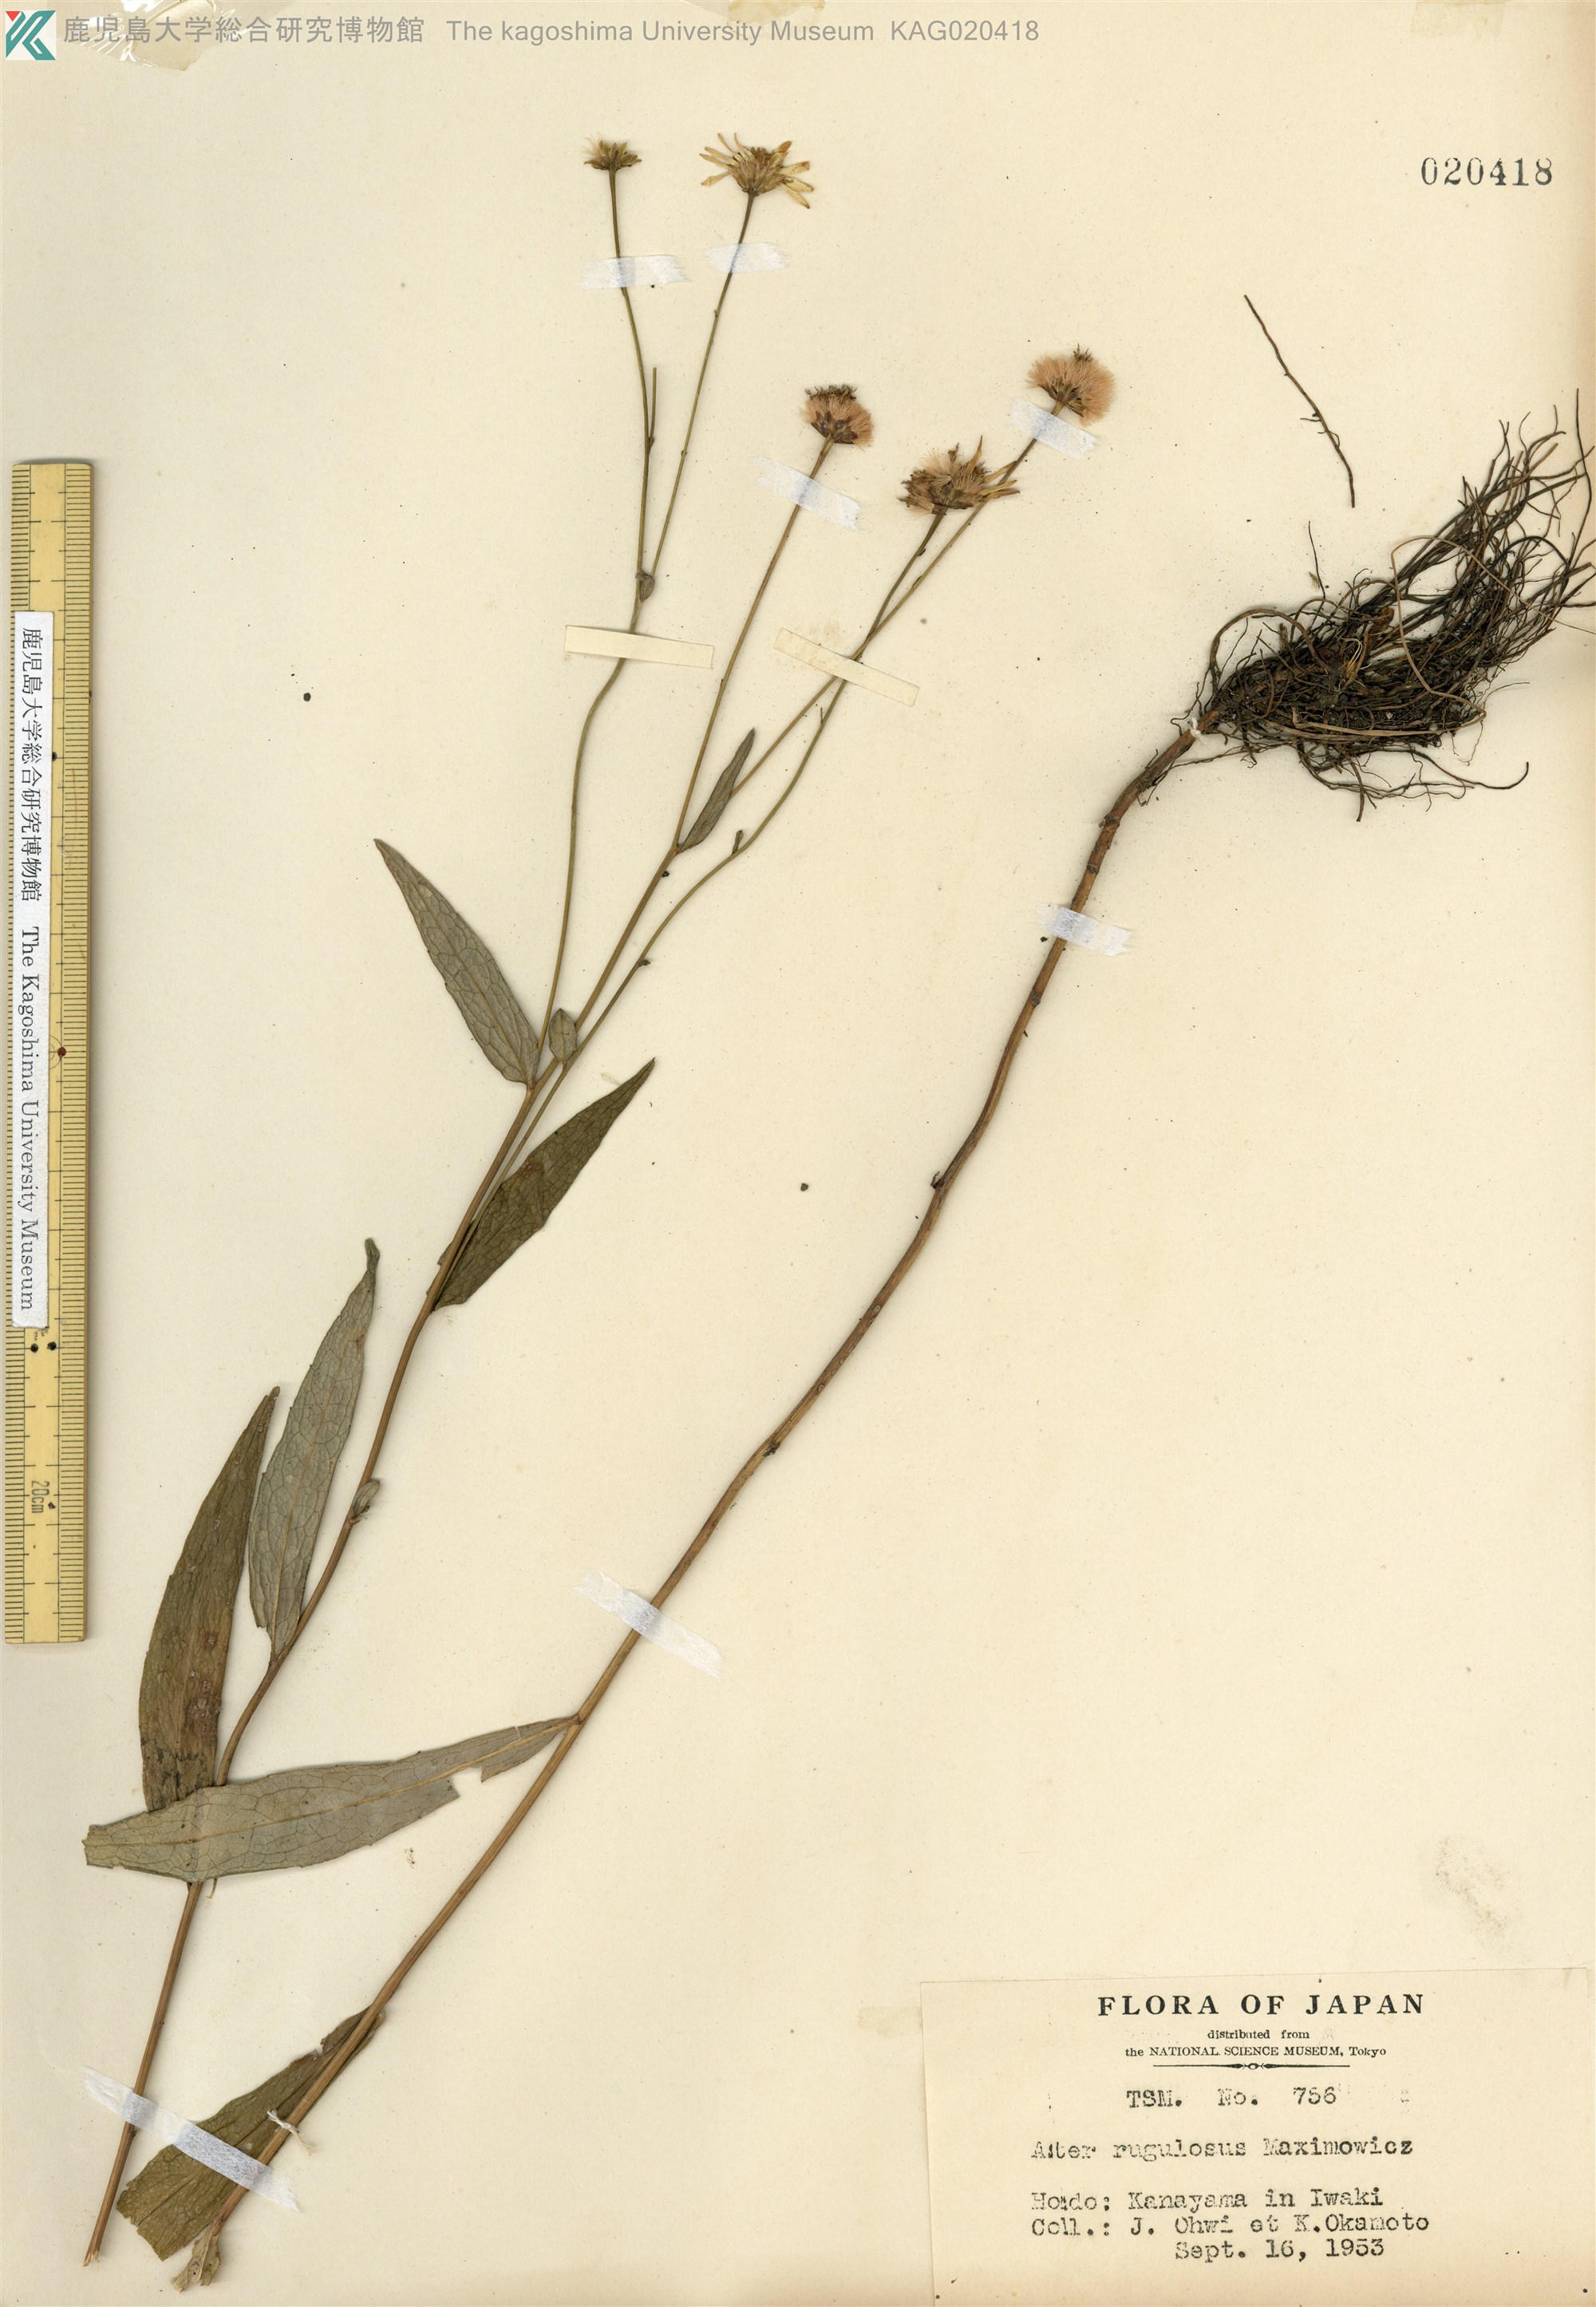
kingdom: Plantae
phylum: Tracheophyta
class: Magnoliopsida
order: Asterales
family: Asteraceae
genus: Cardiagyris
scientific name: Cardiagyris rugulosa
